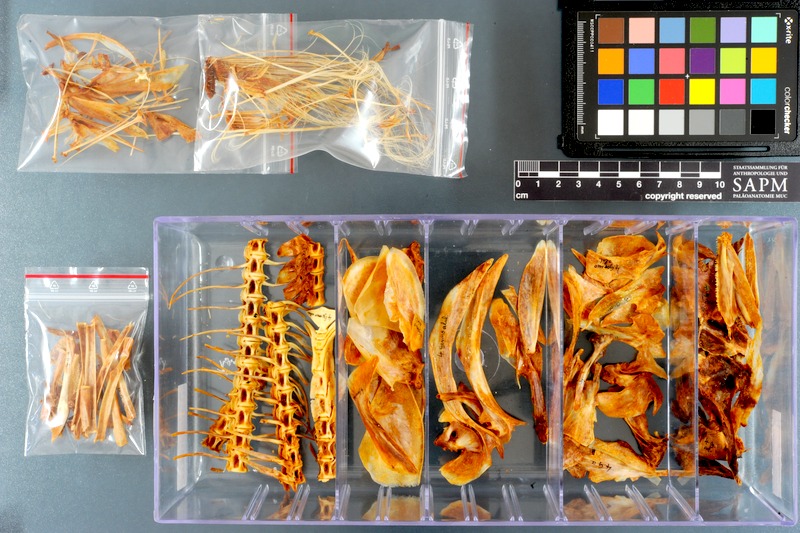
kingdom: Animalia
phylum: Chordata
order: Perciformes
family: Scombridae
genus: Thunnus
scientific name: Thunnus alalunga
